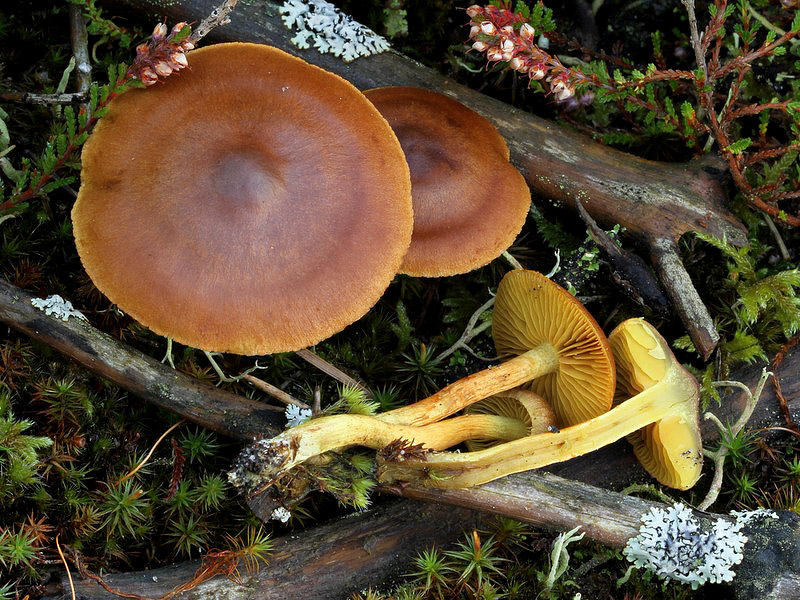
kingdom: Fungi
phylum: Basidiomycota
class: Agaricomycetes
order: Agaricales
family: Cortinariaceae
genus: Cortinarius
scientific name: Cortinarius
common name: gulbladet slørhat
